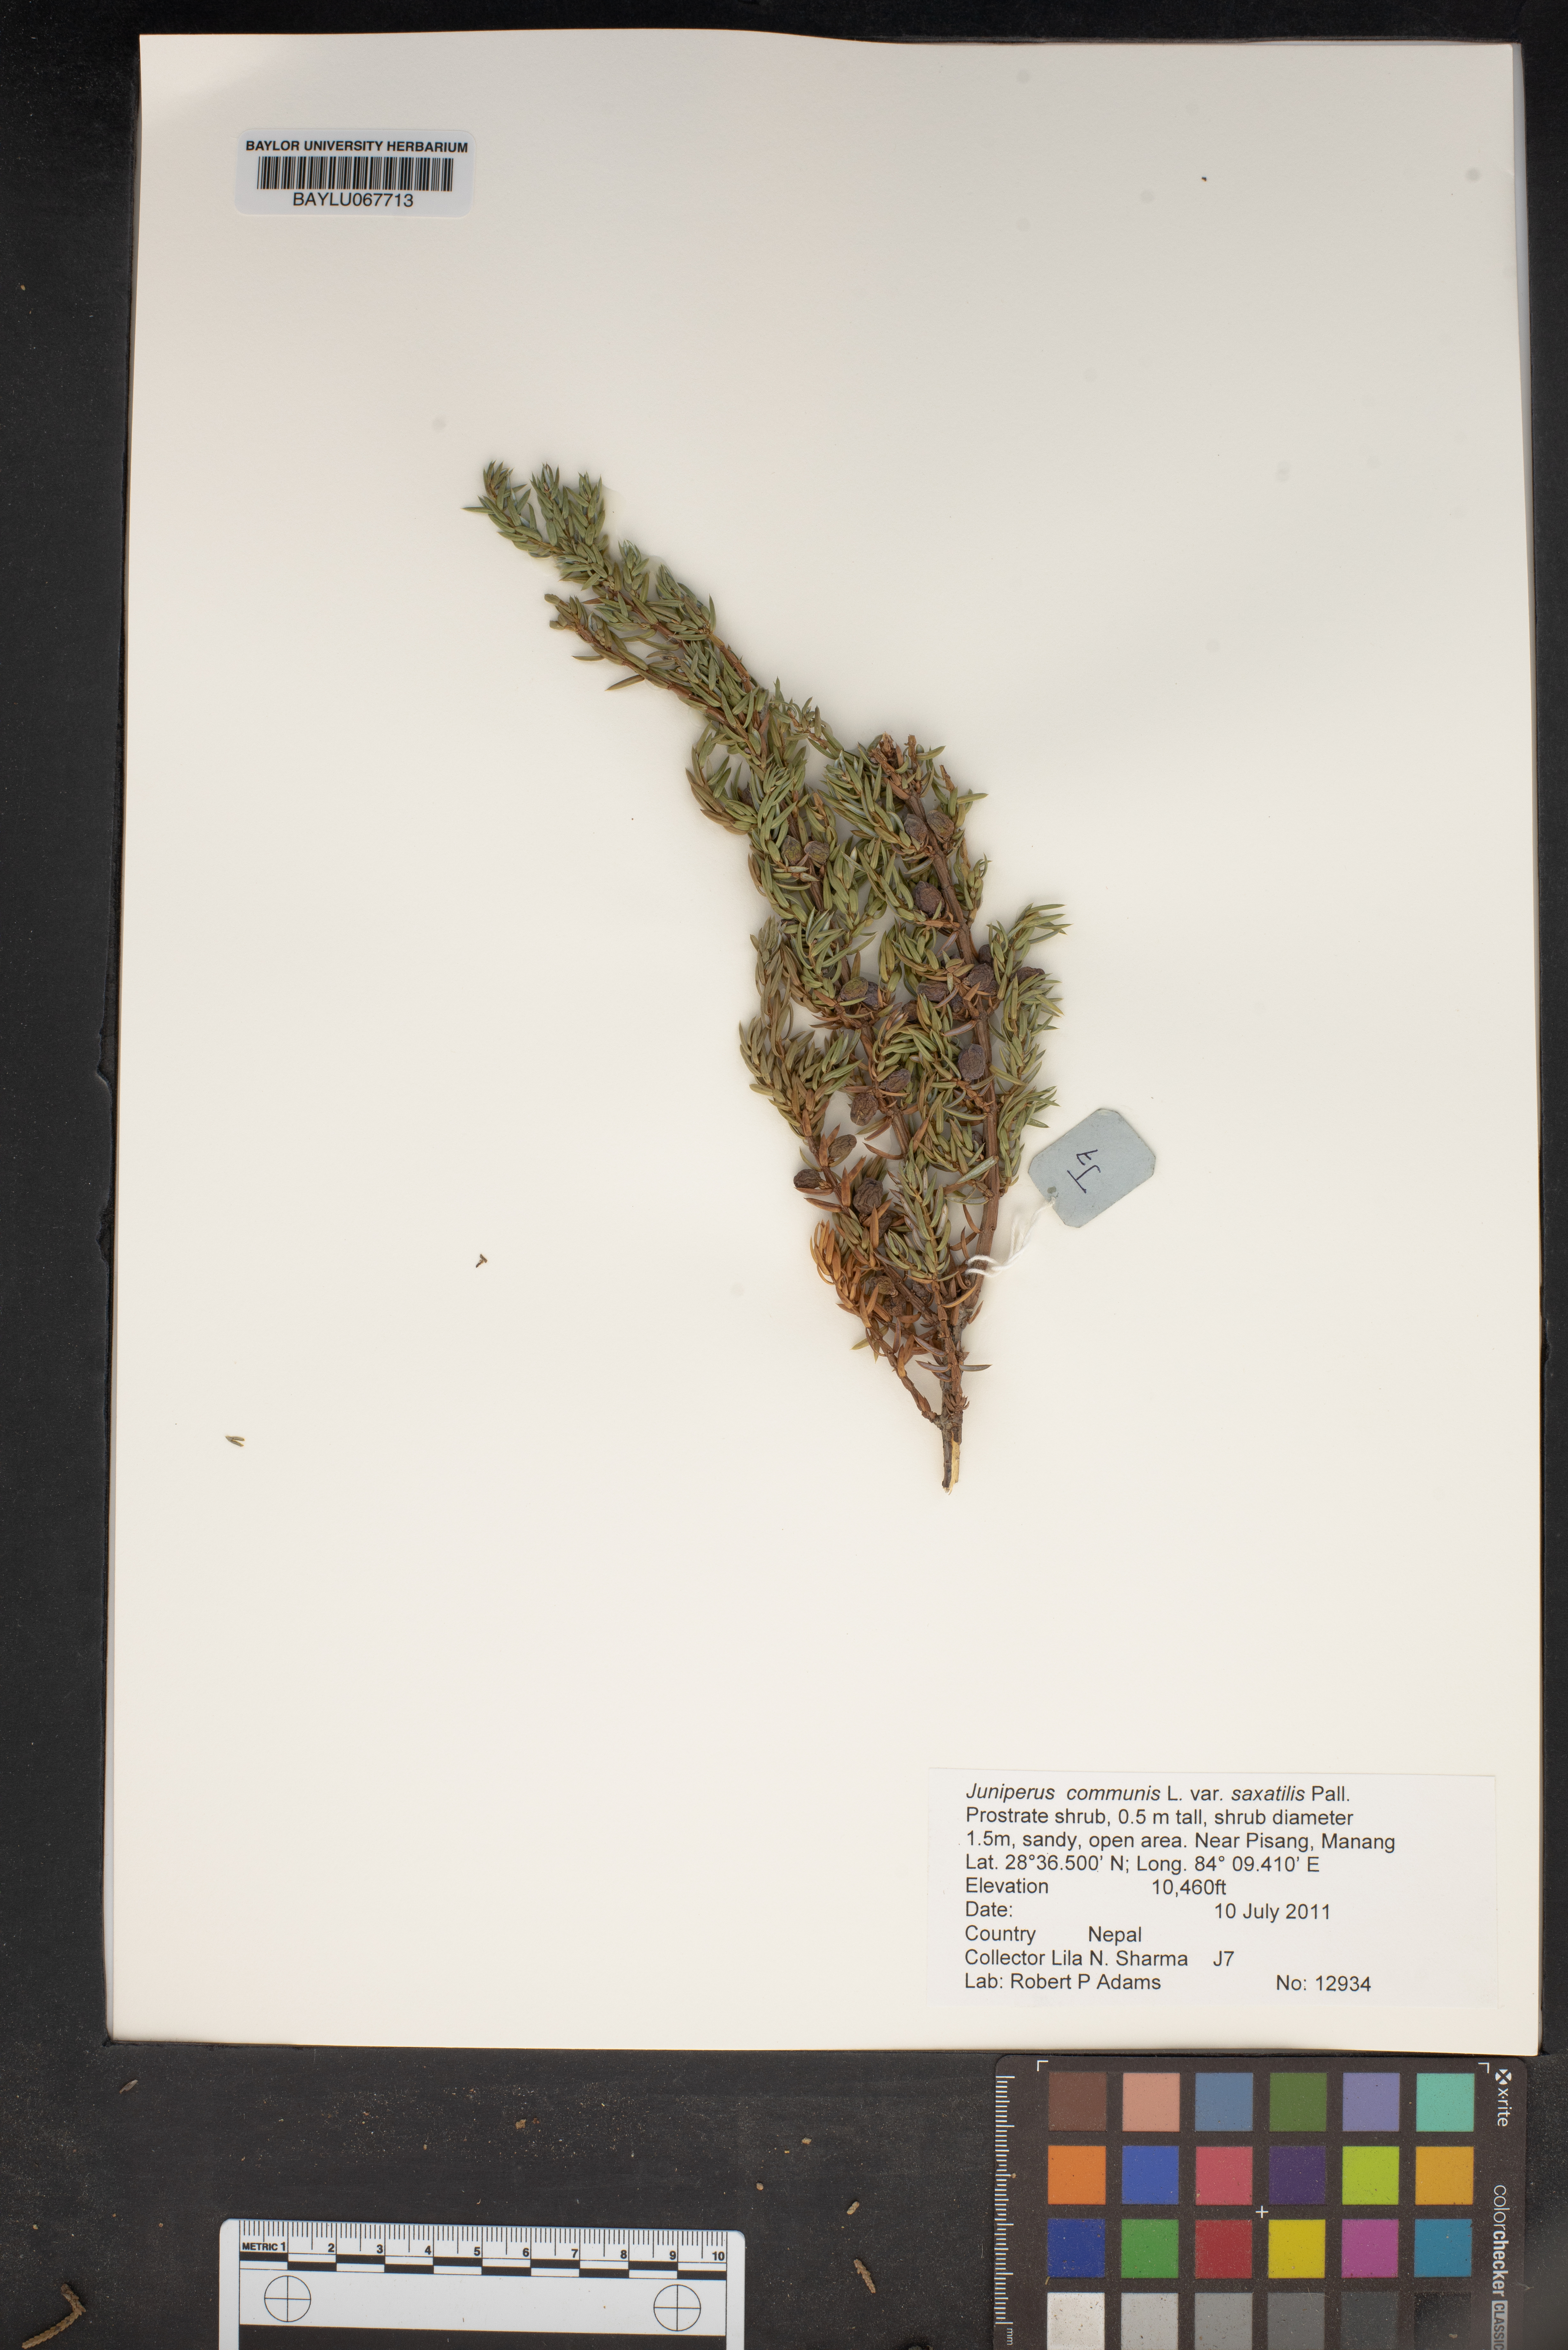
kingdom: Plantae
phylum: Tracheophyta
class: Pinopsida
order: Pinales
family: Cupressaceae
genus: Juniperus
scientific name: Juniperus communis
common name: Common juniper
